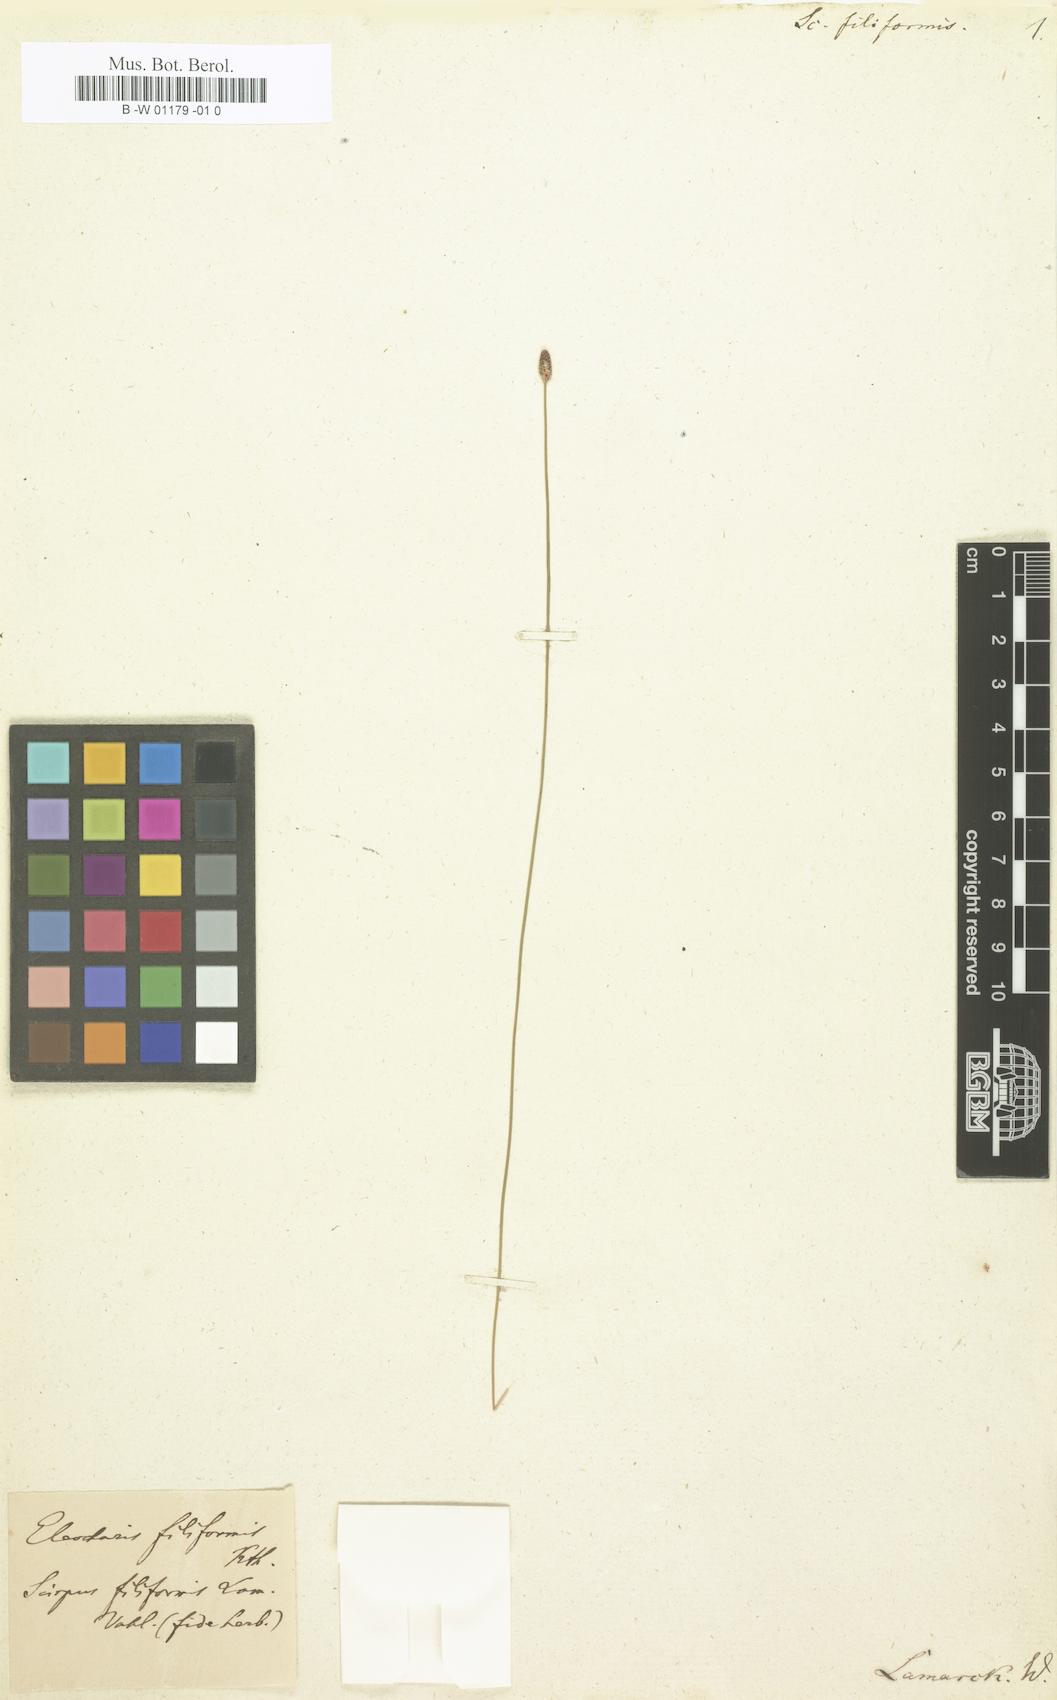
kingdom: Plantae
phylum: Tracheophyta
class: Liliopsida
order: Poales
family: Cyperaceae
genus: Scirpus
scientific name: Scirpus filiformis
